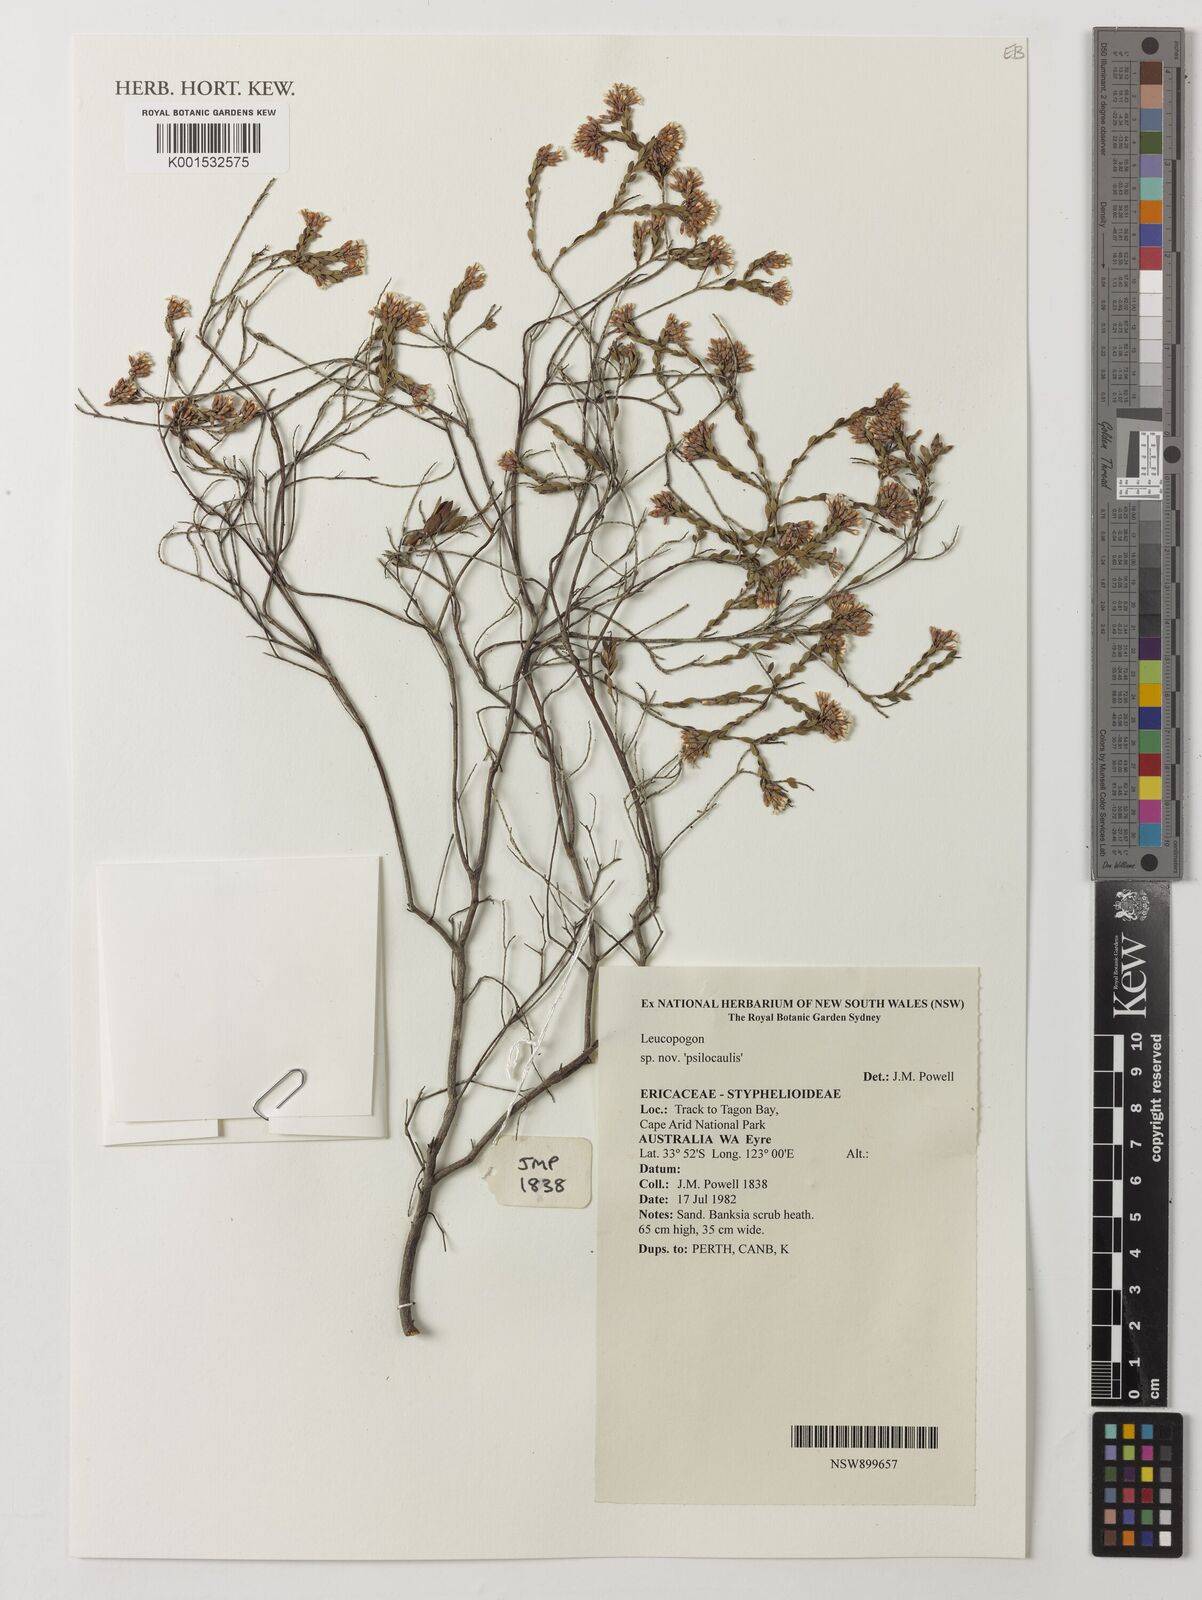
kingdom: Plantae
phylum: Tracheophyta
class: Magnoliopsida
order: Ericales
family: Ericaceae
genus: Leucopogon
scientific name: Leucopogon
